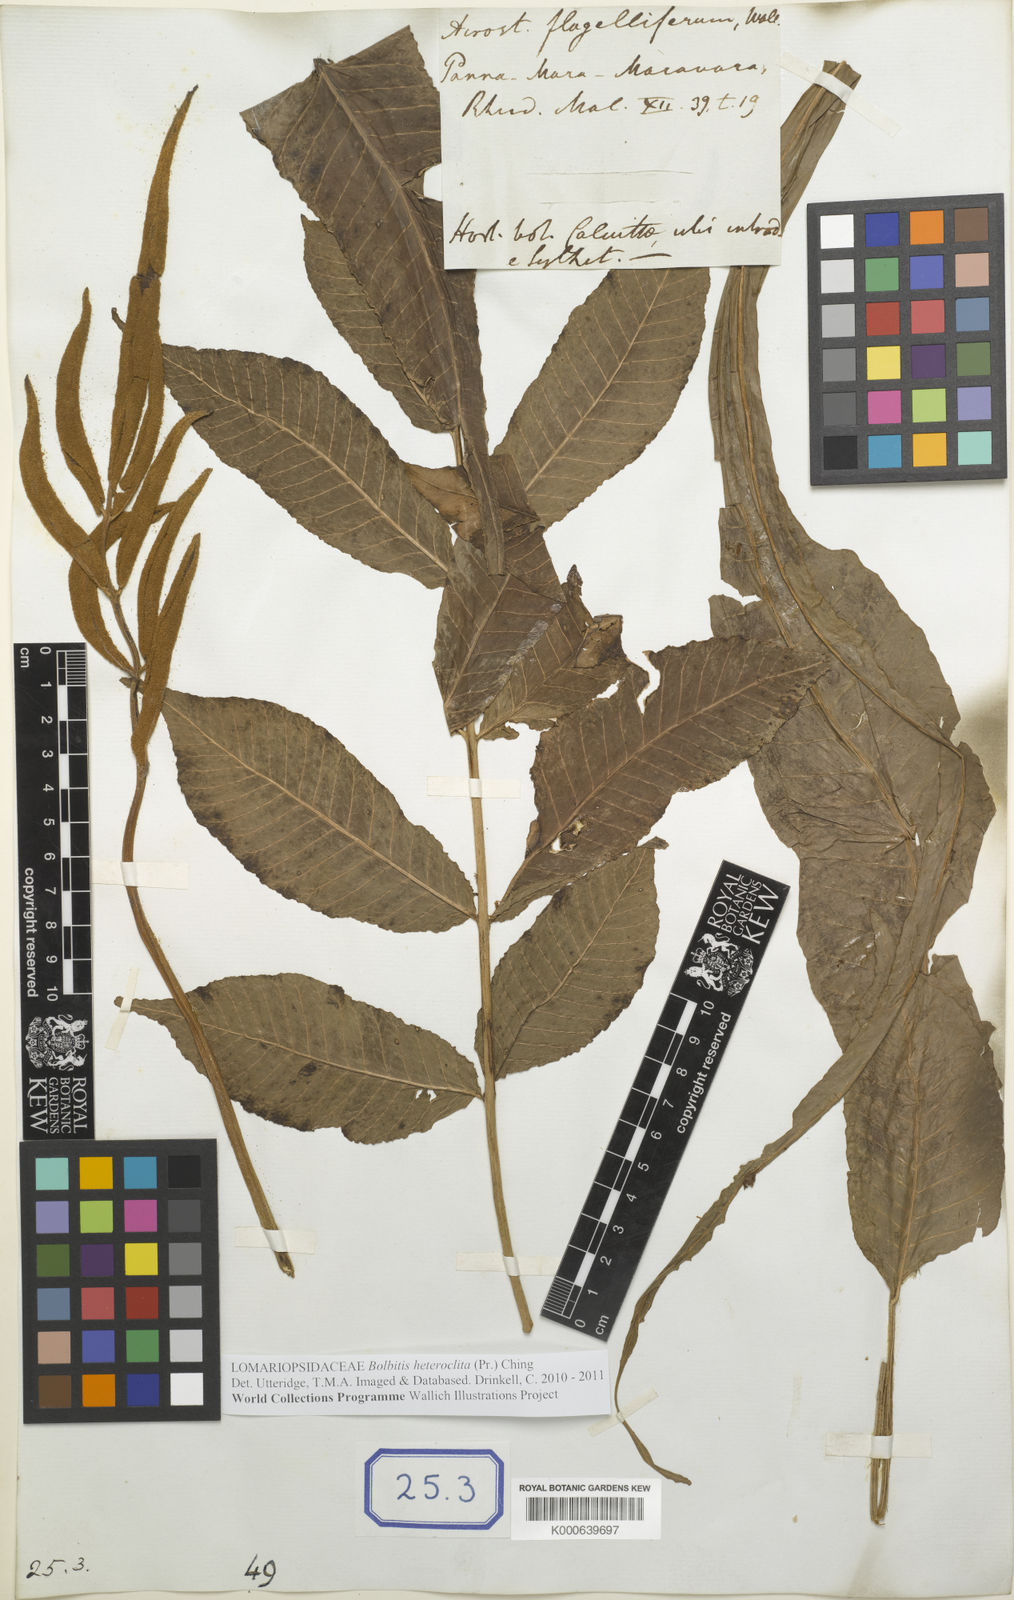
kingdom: Plantae
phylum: Tracheophyta
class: Polypodiopsida
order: Polypodiales
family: Dryopteridaceae
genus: Bolbitis
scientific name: Bolbitis heteroclita
